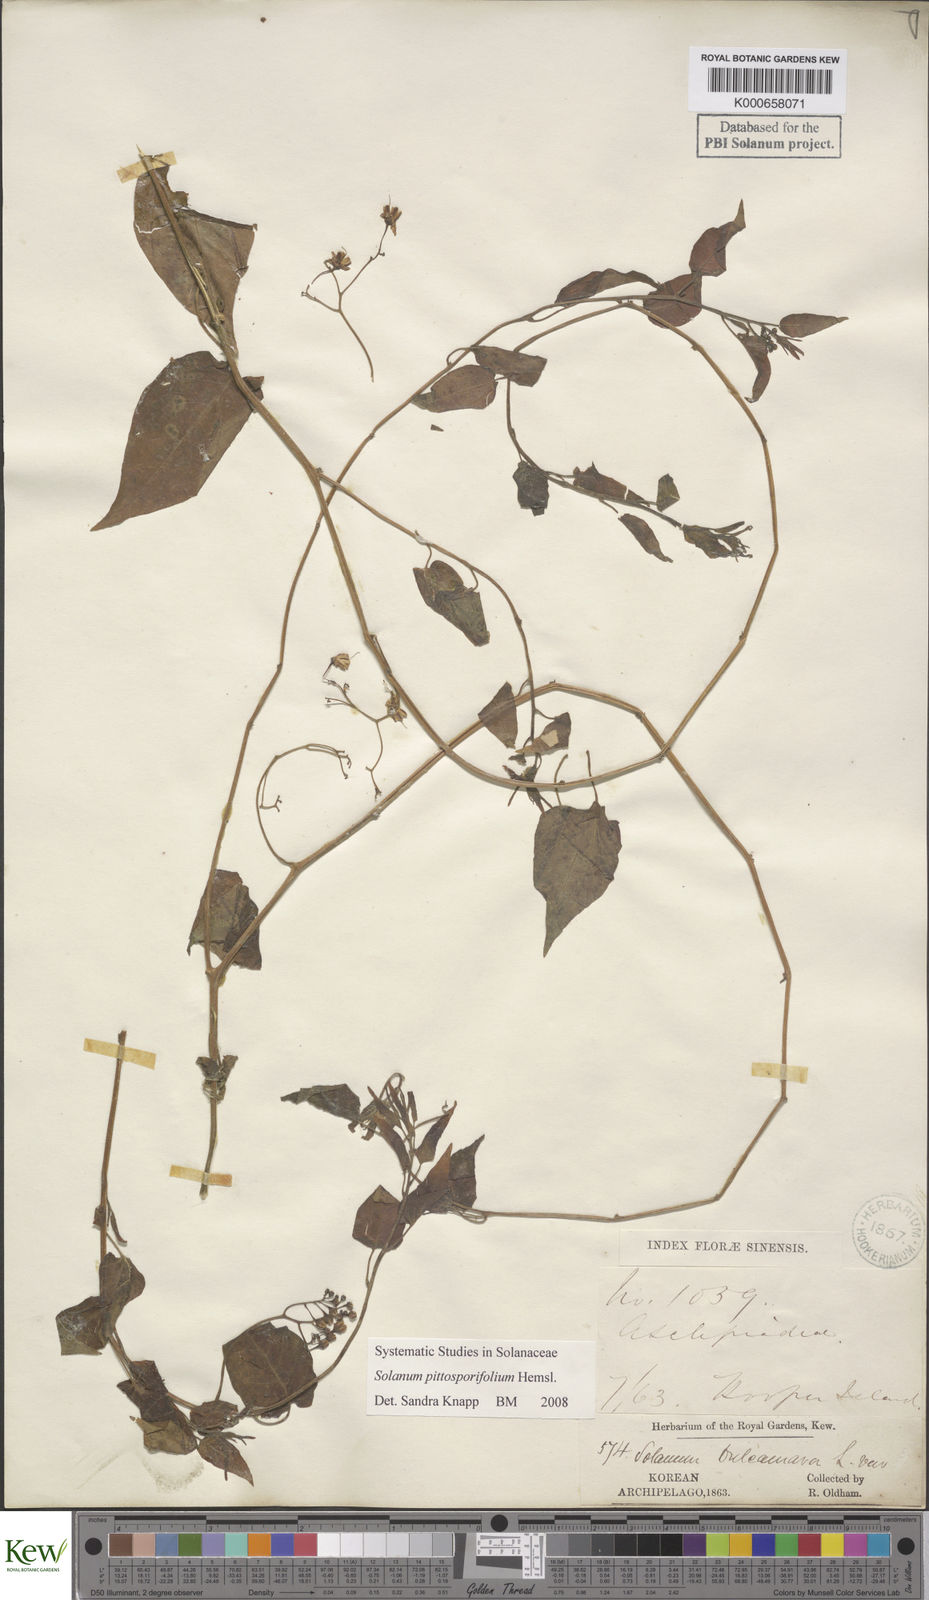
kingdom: Plantae
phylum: Tracheophyta
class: Magnoliopsida
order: Solanales
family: Solanaceae
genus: Solanum
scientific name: Solanum pittosporifolium
